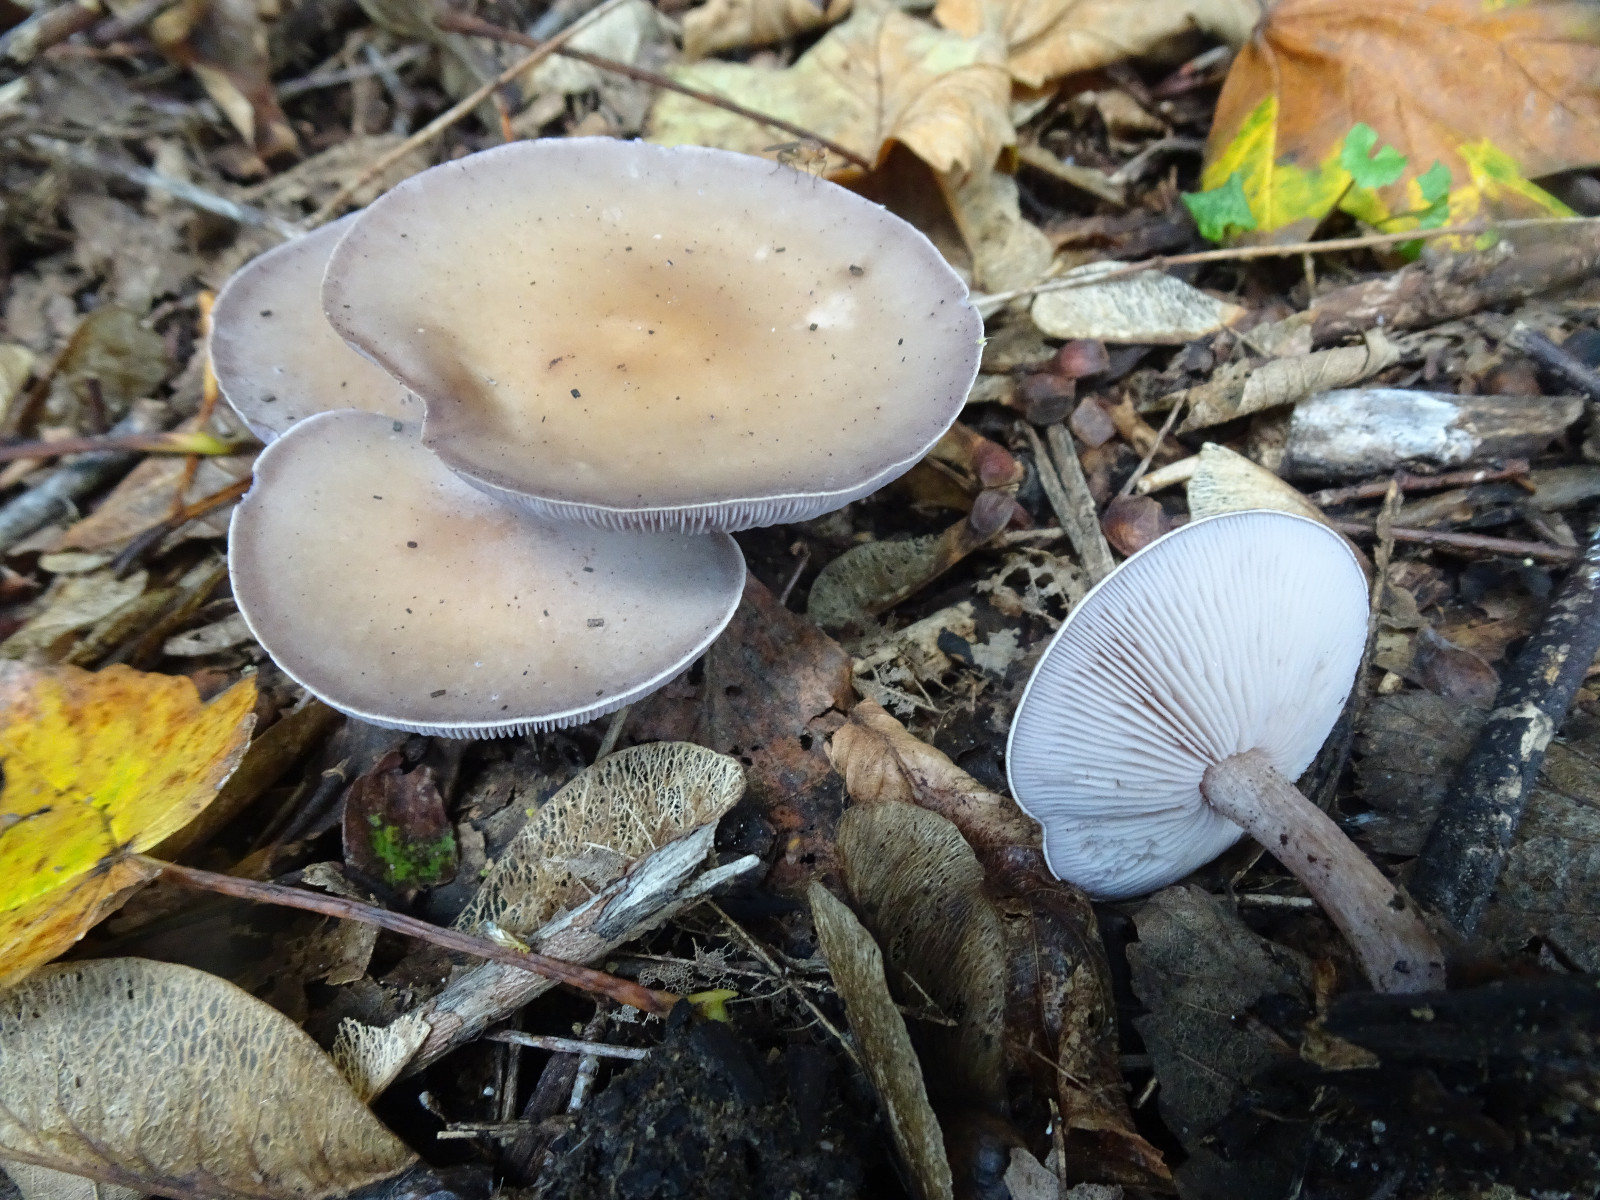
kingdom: Fungi
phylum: Basidiomycota
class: Agaricomycetes
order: Agaricales
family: Tricholomataceae
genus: Lepista
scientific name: Lepista nuda
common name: violet hekseringshat
